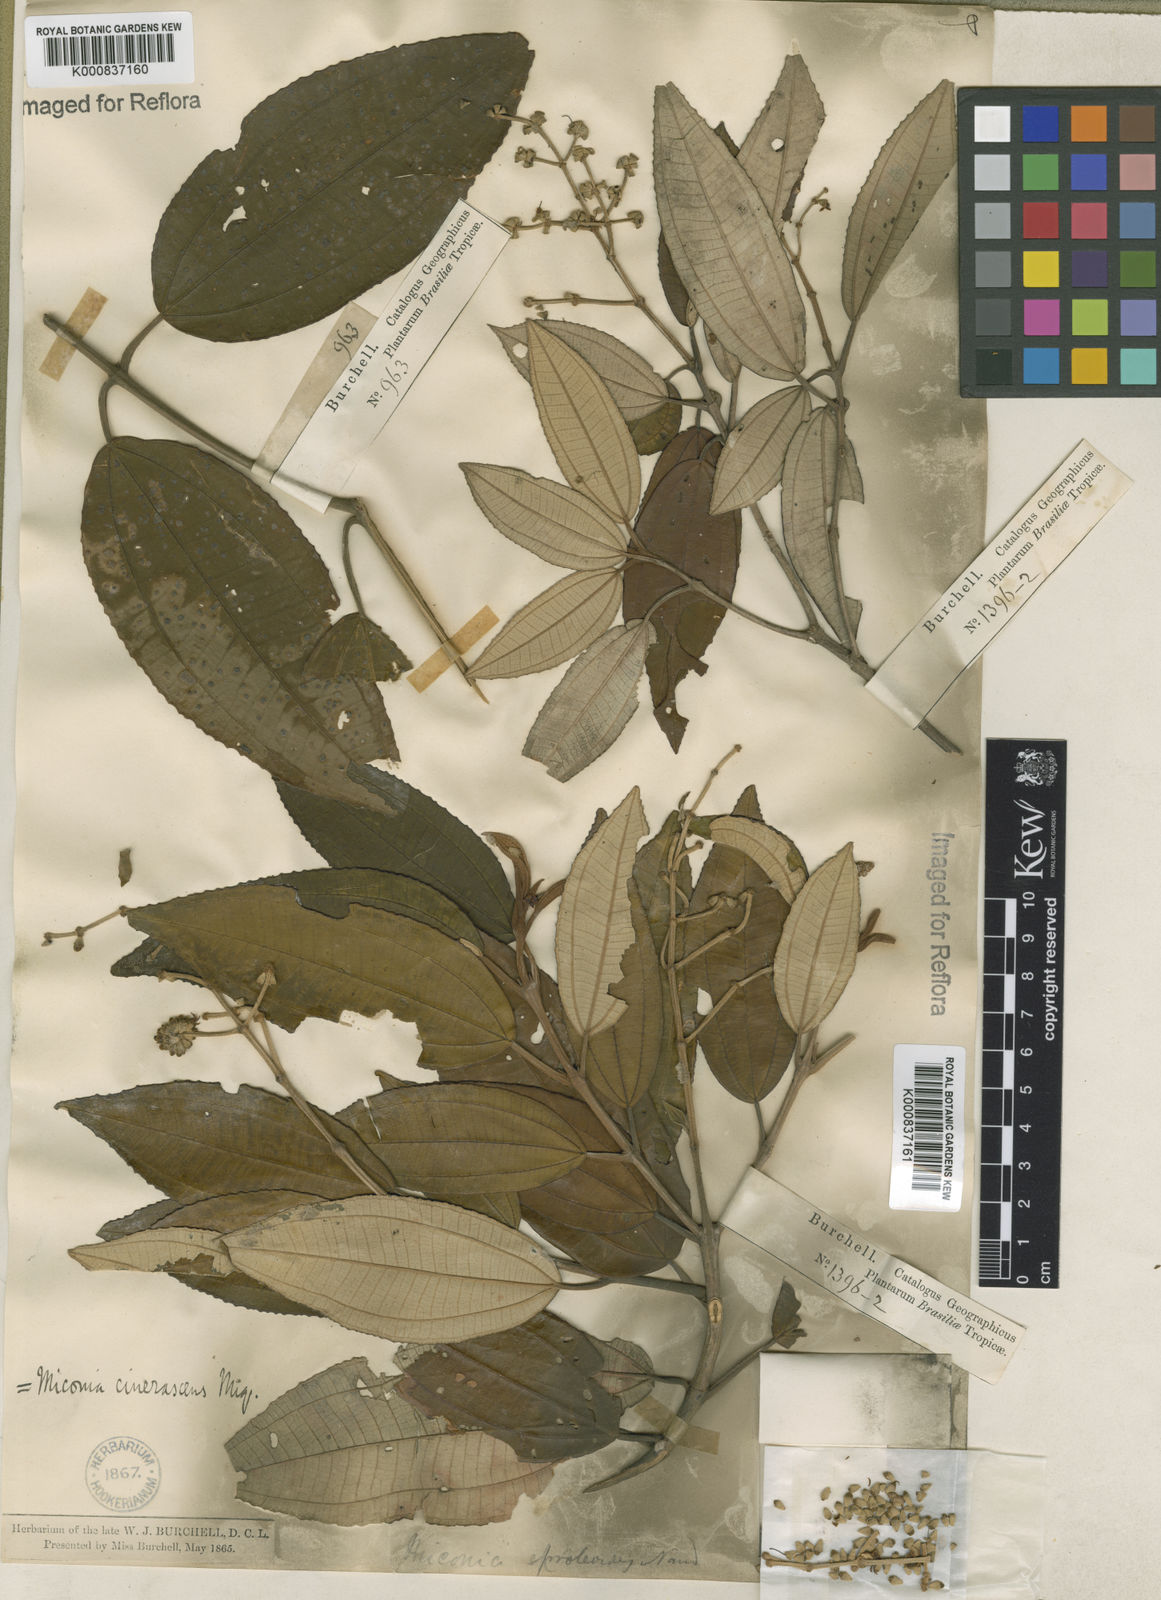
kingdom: Plantae
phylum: Tracheophyta
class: Magnoliopsida
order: Myrtales
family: Melastomataceae
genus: Miconia
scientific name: Miconia cinerascens
